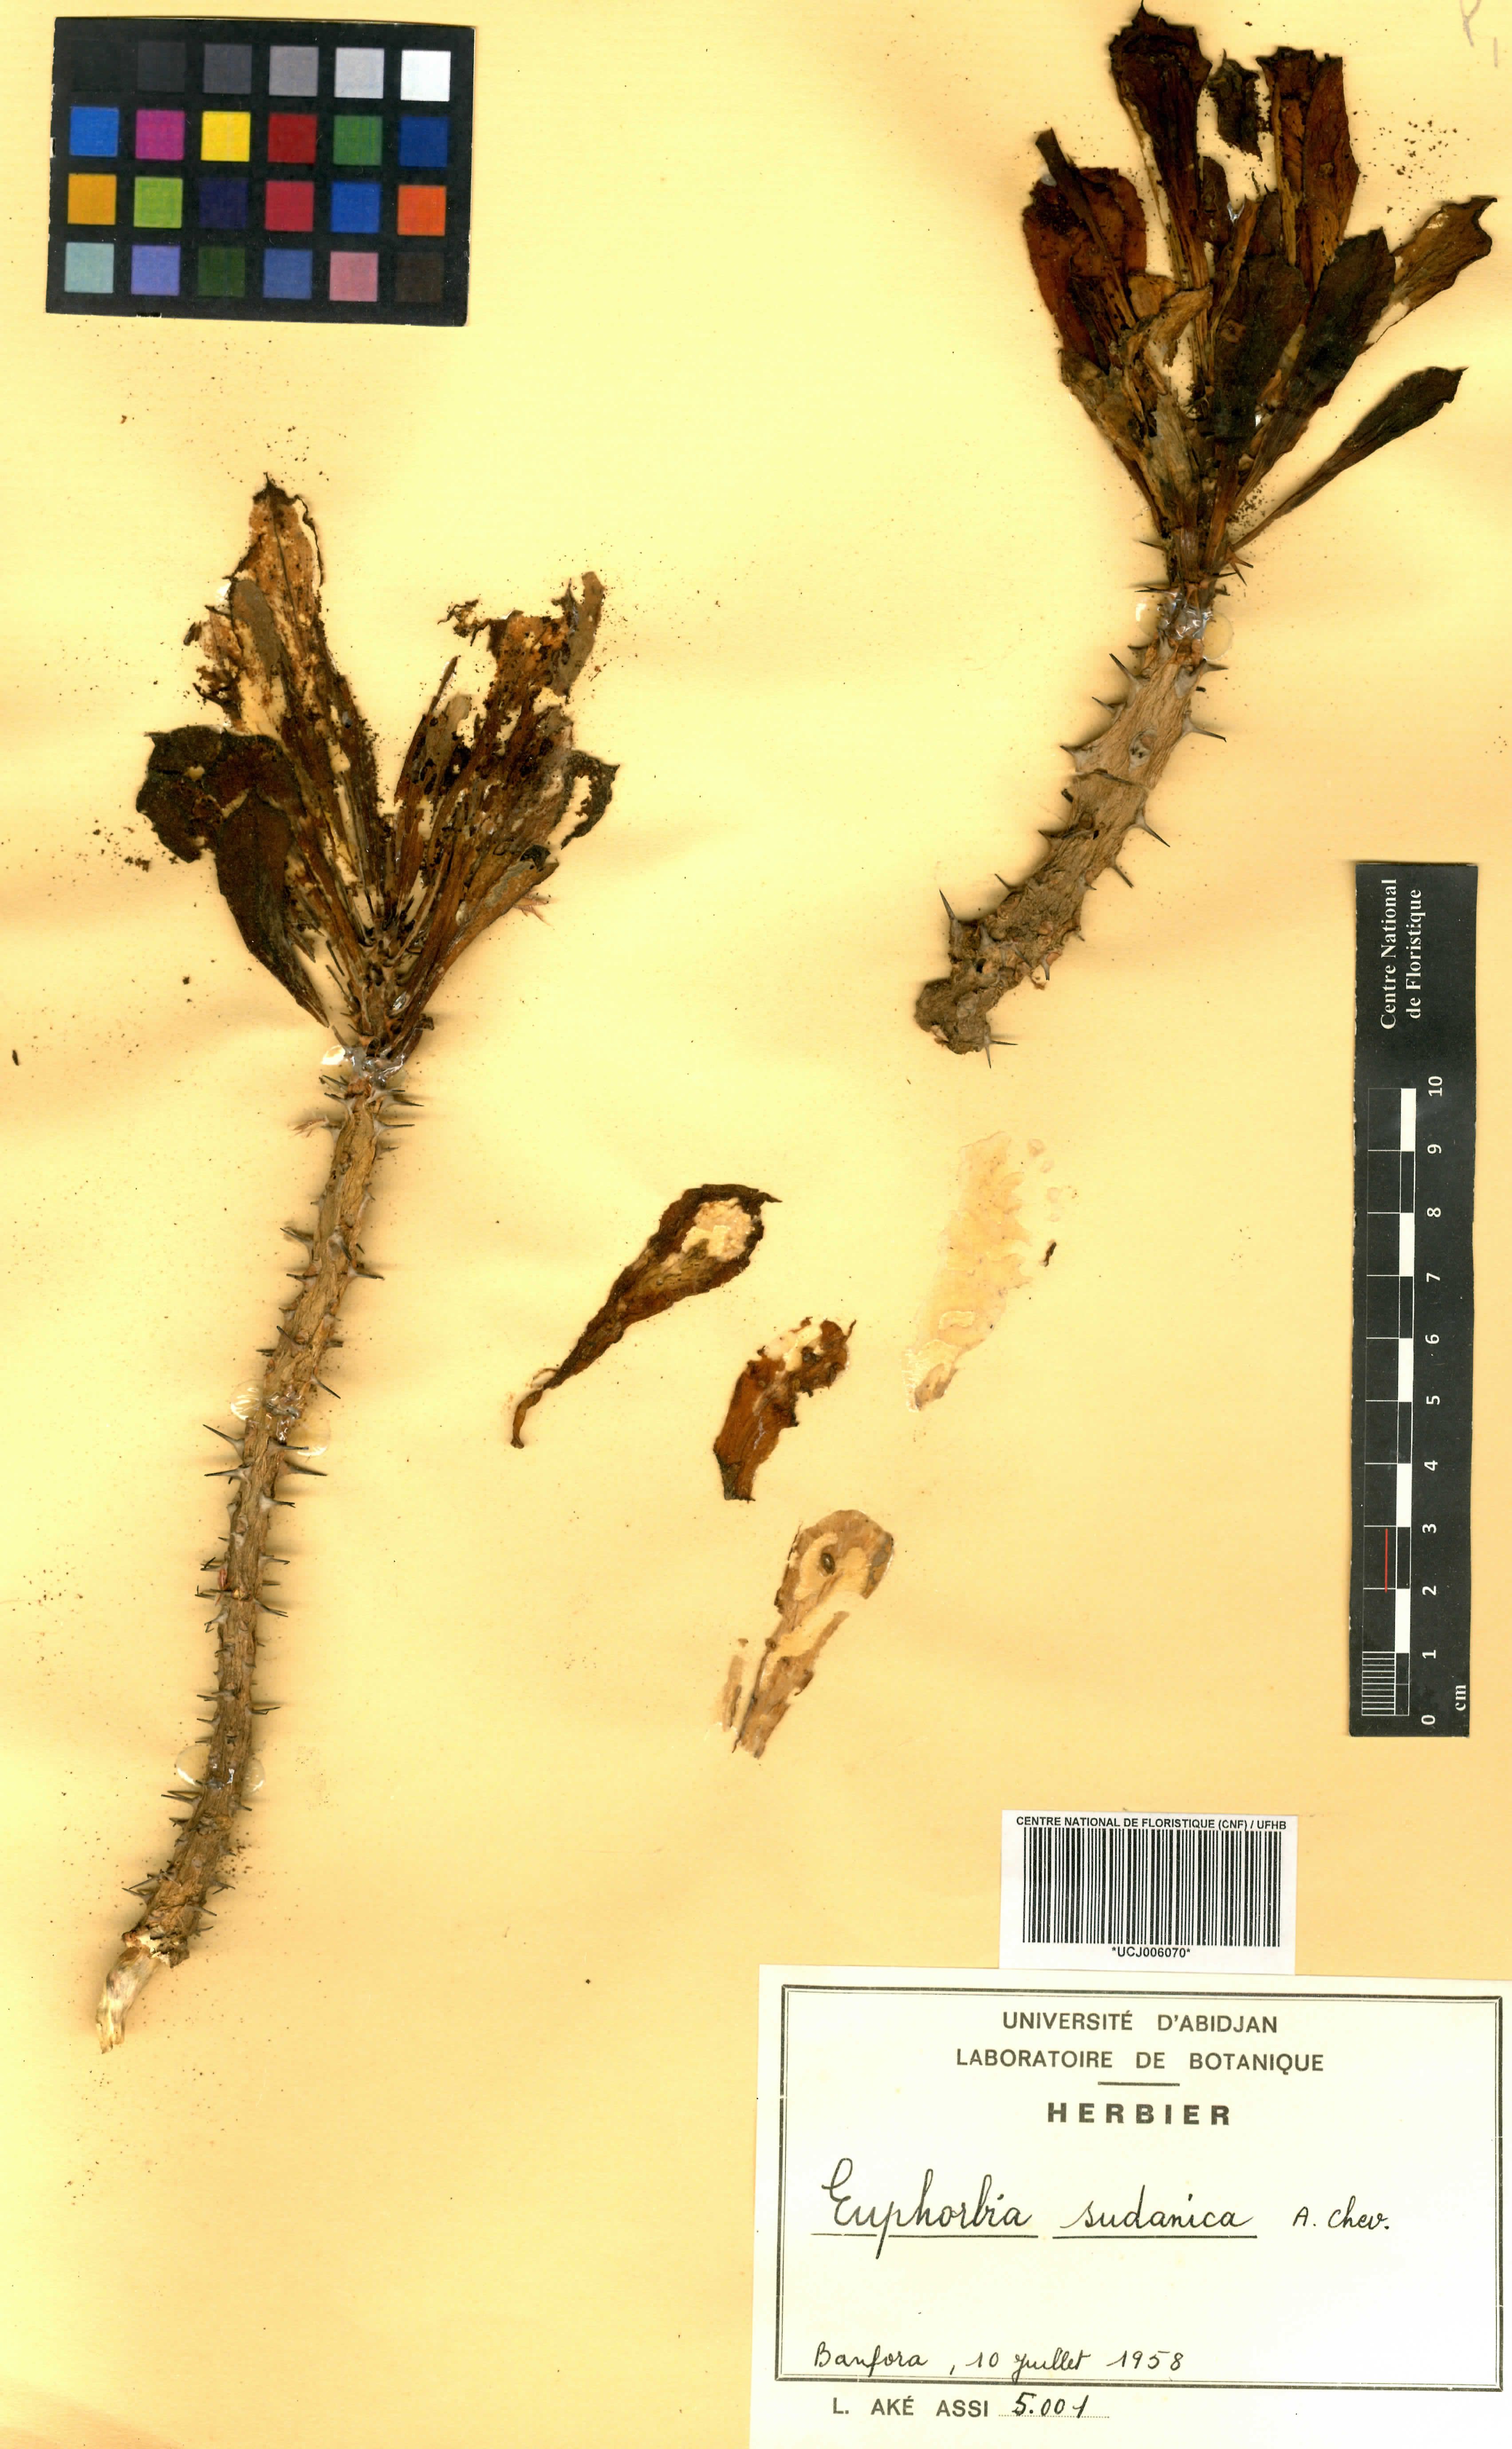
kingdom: Plantae
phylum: Tracheophyta
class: Magnoliopsida
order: Malpighiales
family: Euphorbiaceae
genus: Euphorbia
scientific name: Euphorbia sudanica
